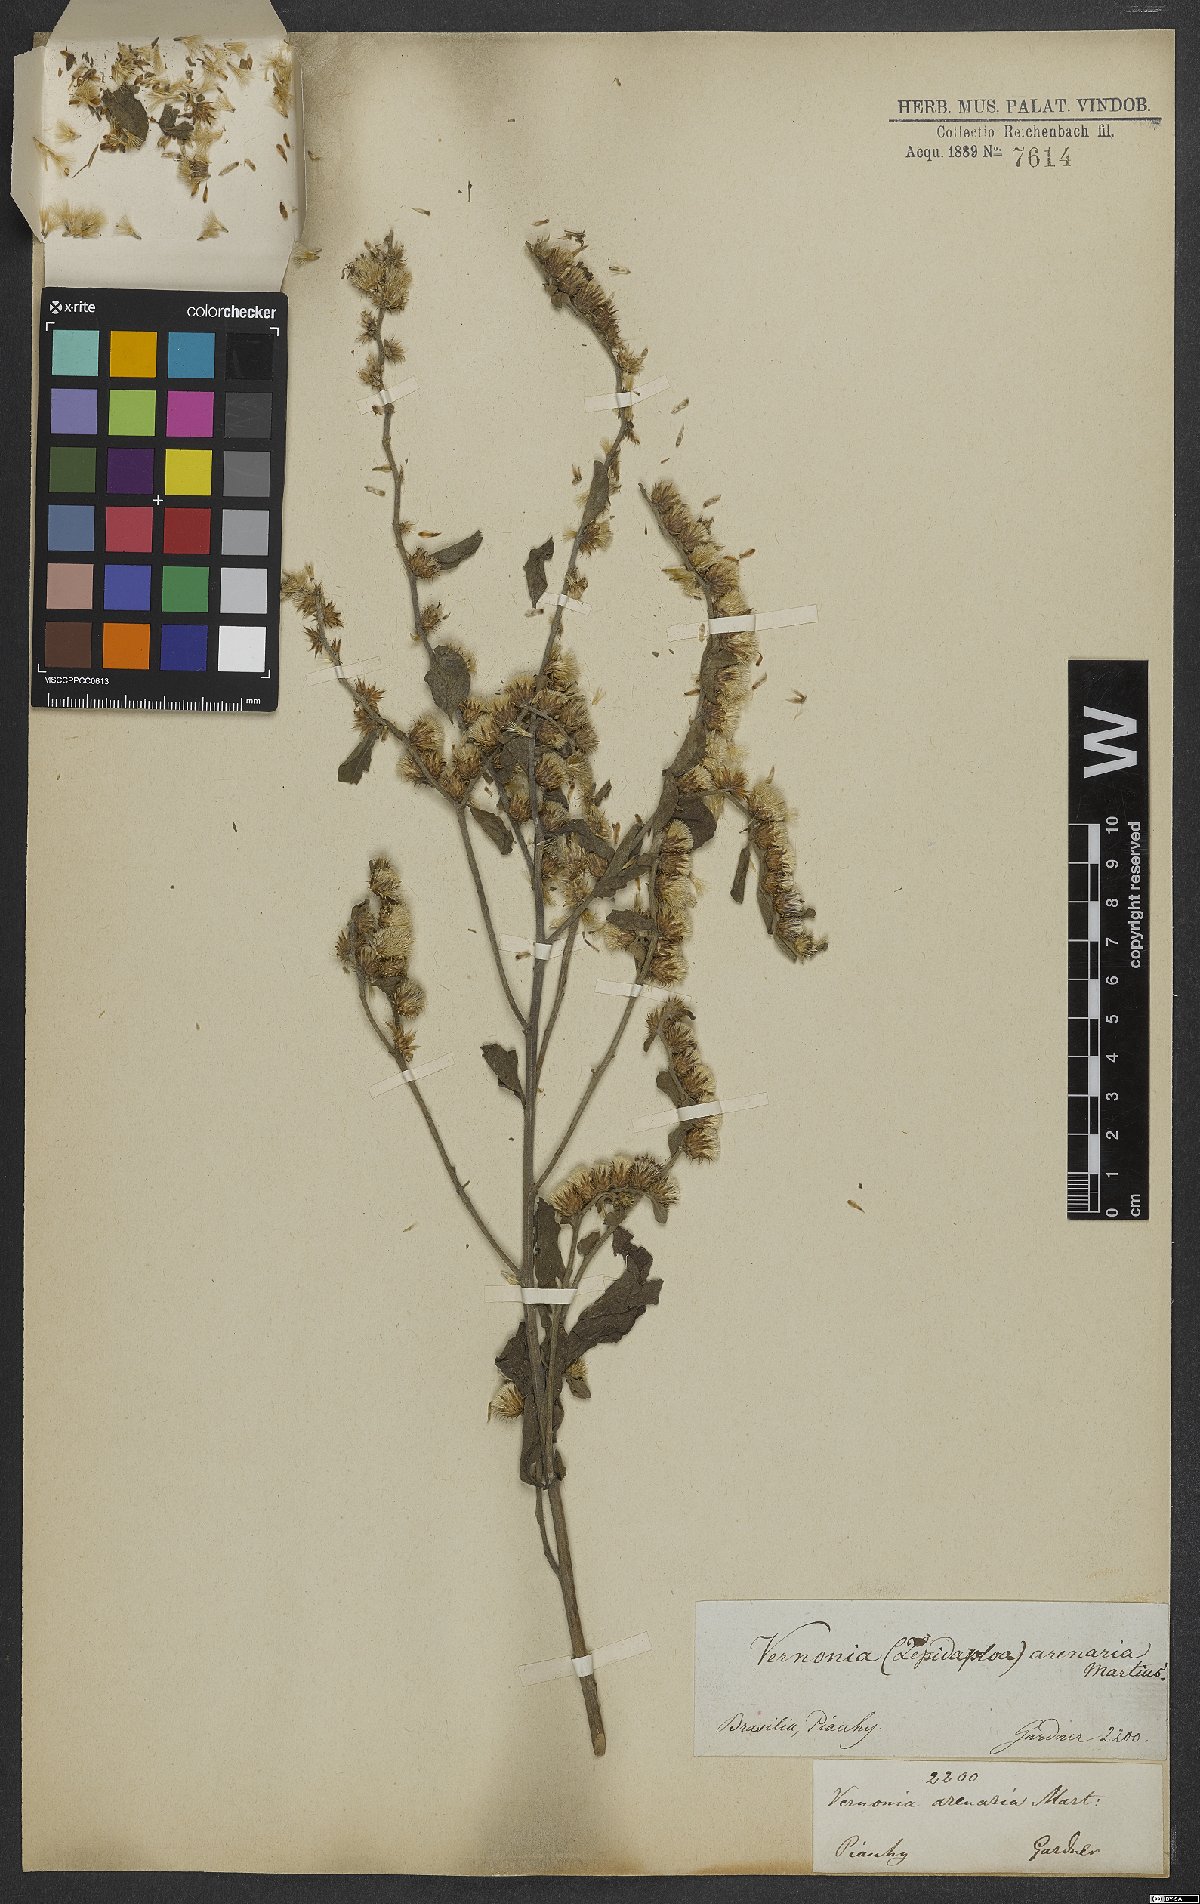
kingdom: Plantae
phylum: Tracheophyta
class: Magnoliopsida
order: Asterales
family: Asteraceae
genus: Lepidaploa
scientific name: Lepidaploa grisea
